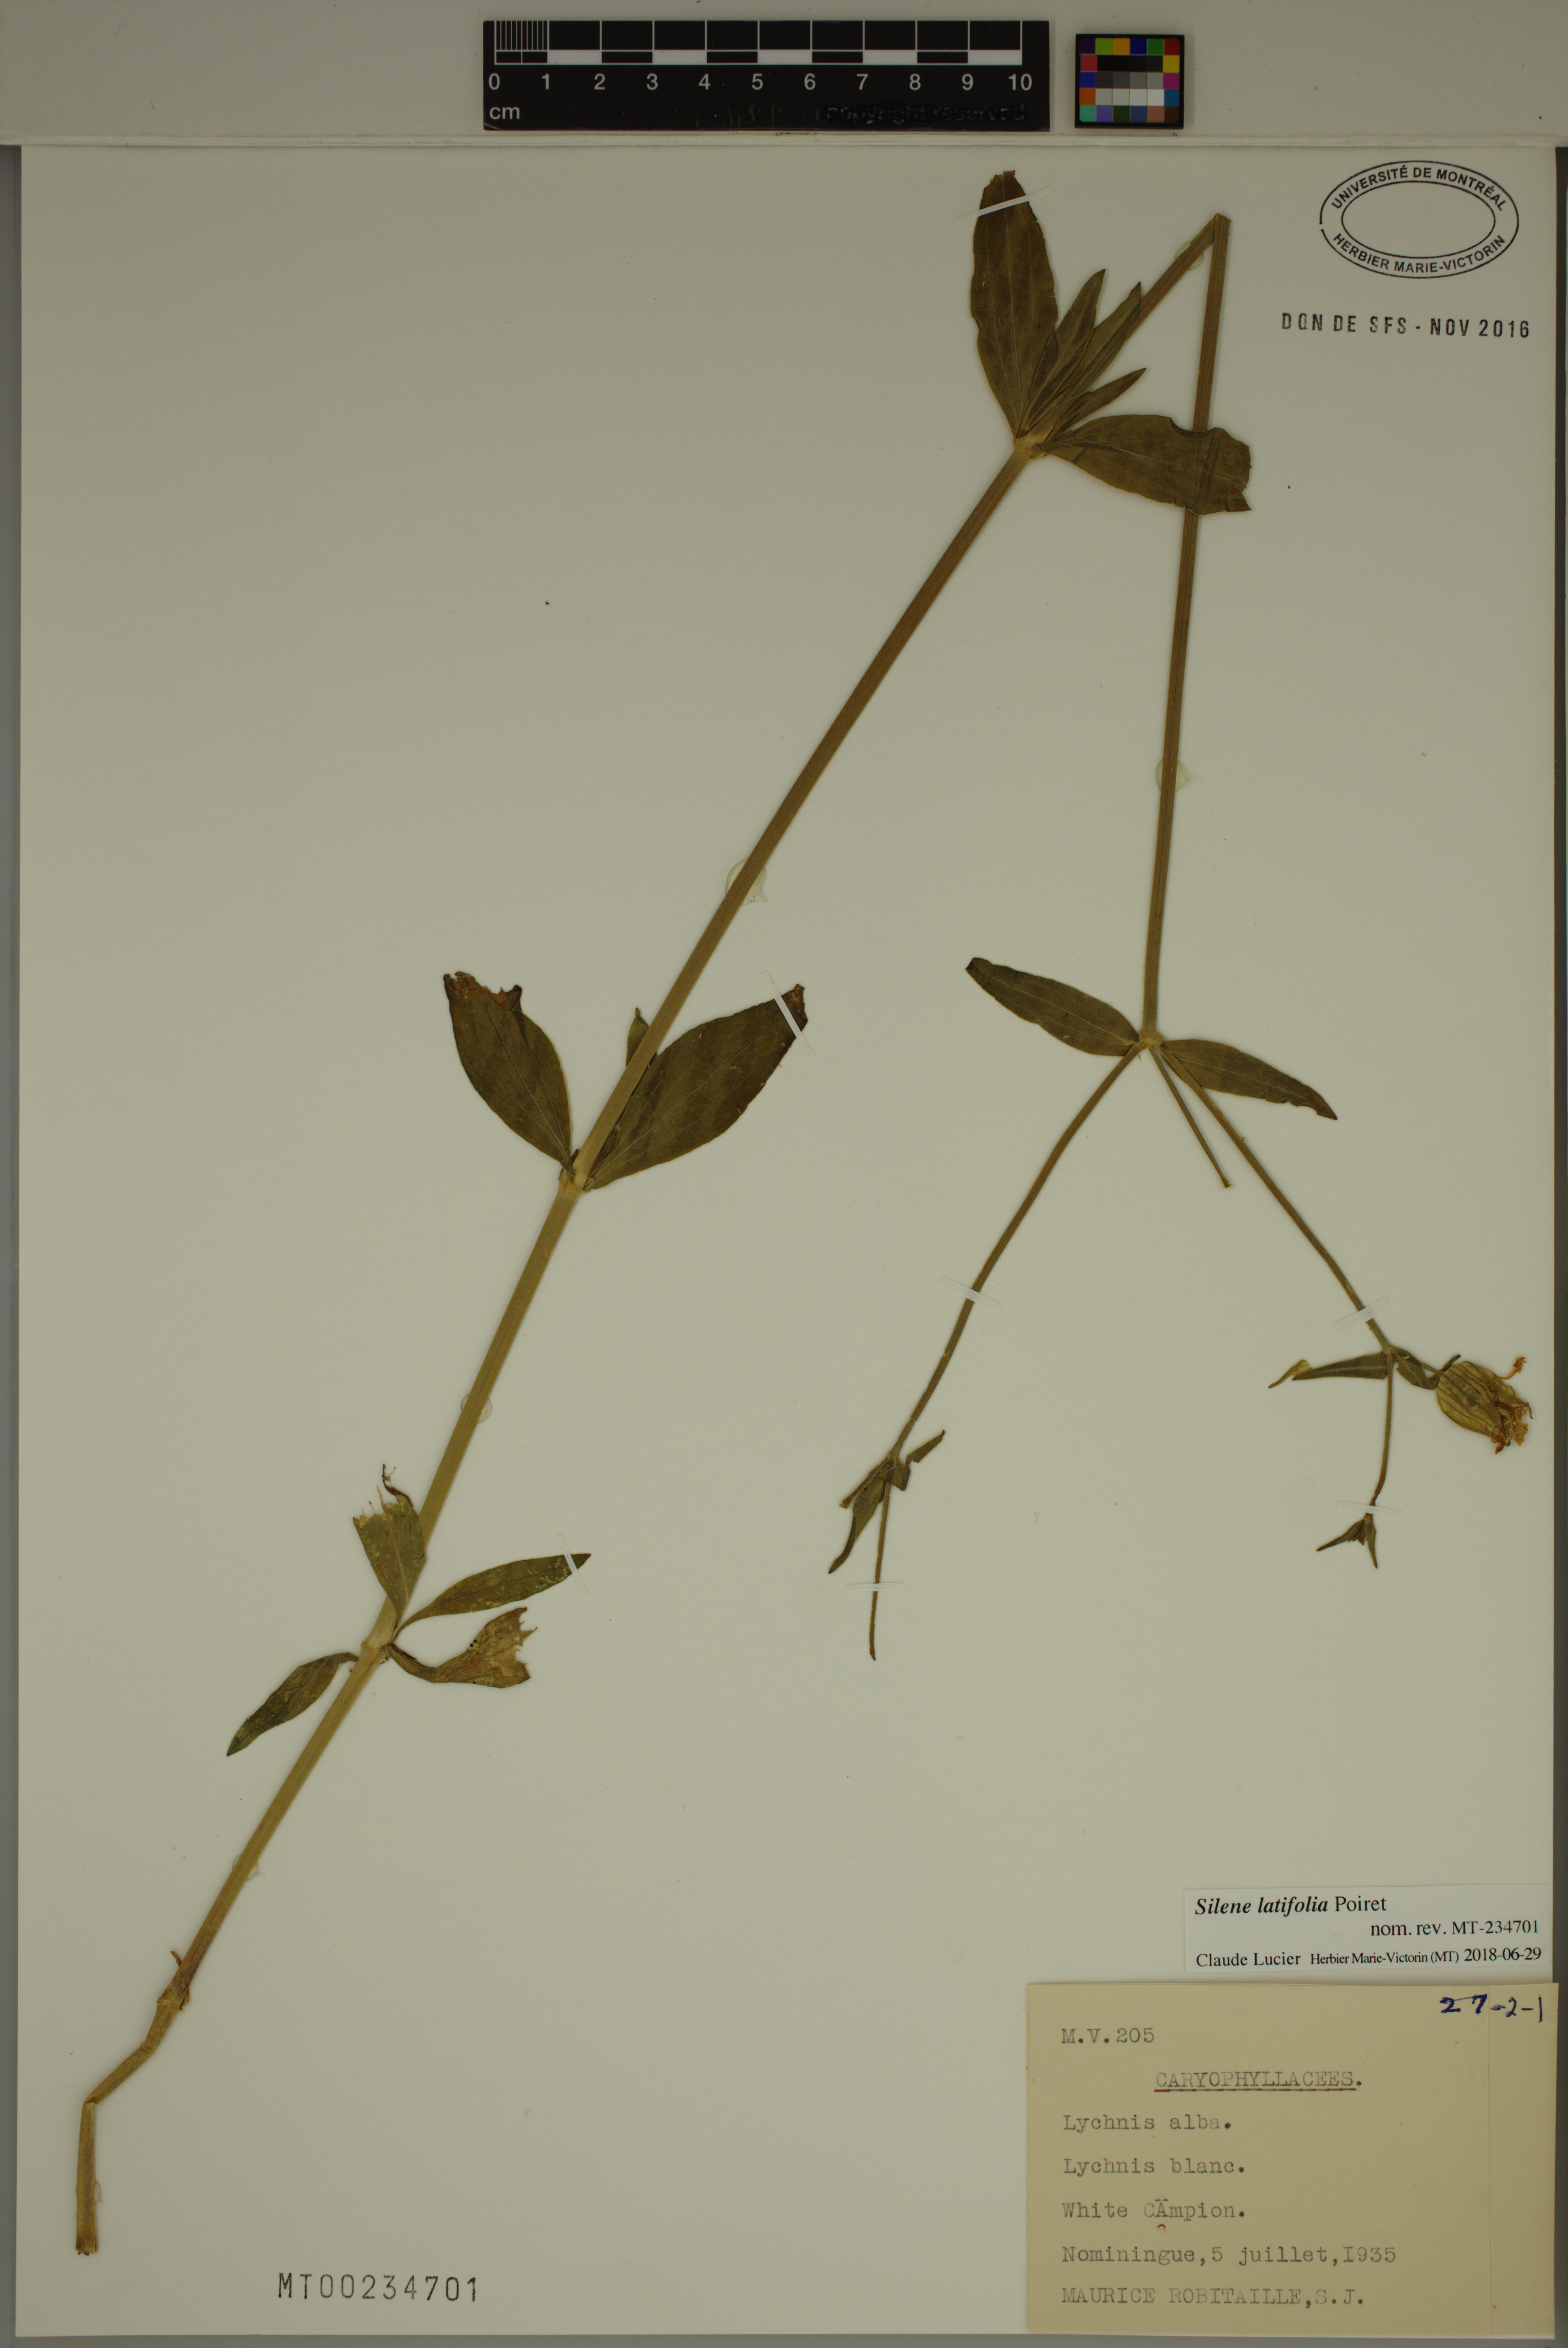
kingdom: Plantae
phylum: Tracheophyta
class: Magnoliopsida
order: Caryophyllales
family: Caryophyllaceae
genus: Silene
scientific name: Silene latifolia
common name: White campion
